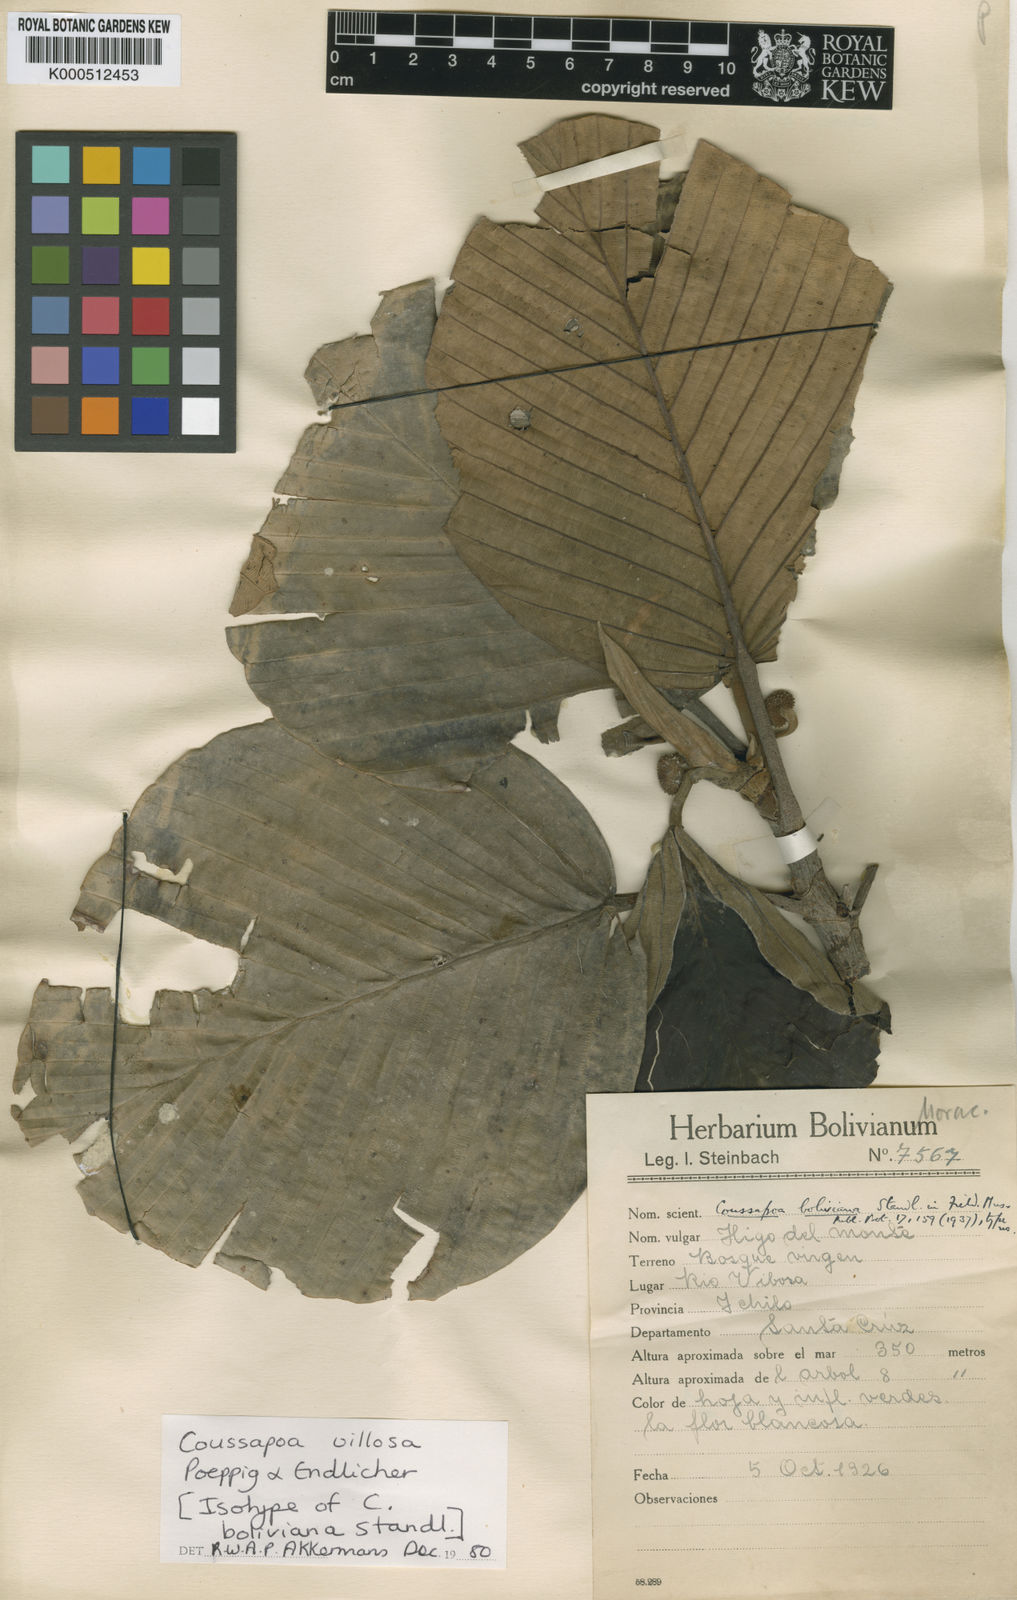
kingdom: Plantae
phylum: Tracheophyta
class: Magnoliopsida
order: Rosales
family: Urticaceae
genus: Coussapoa
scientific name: Coussapoa villosa
